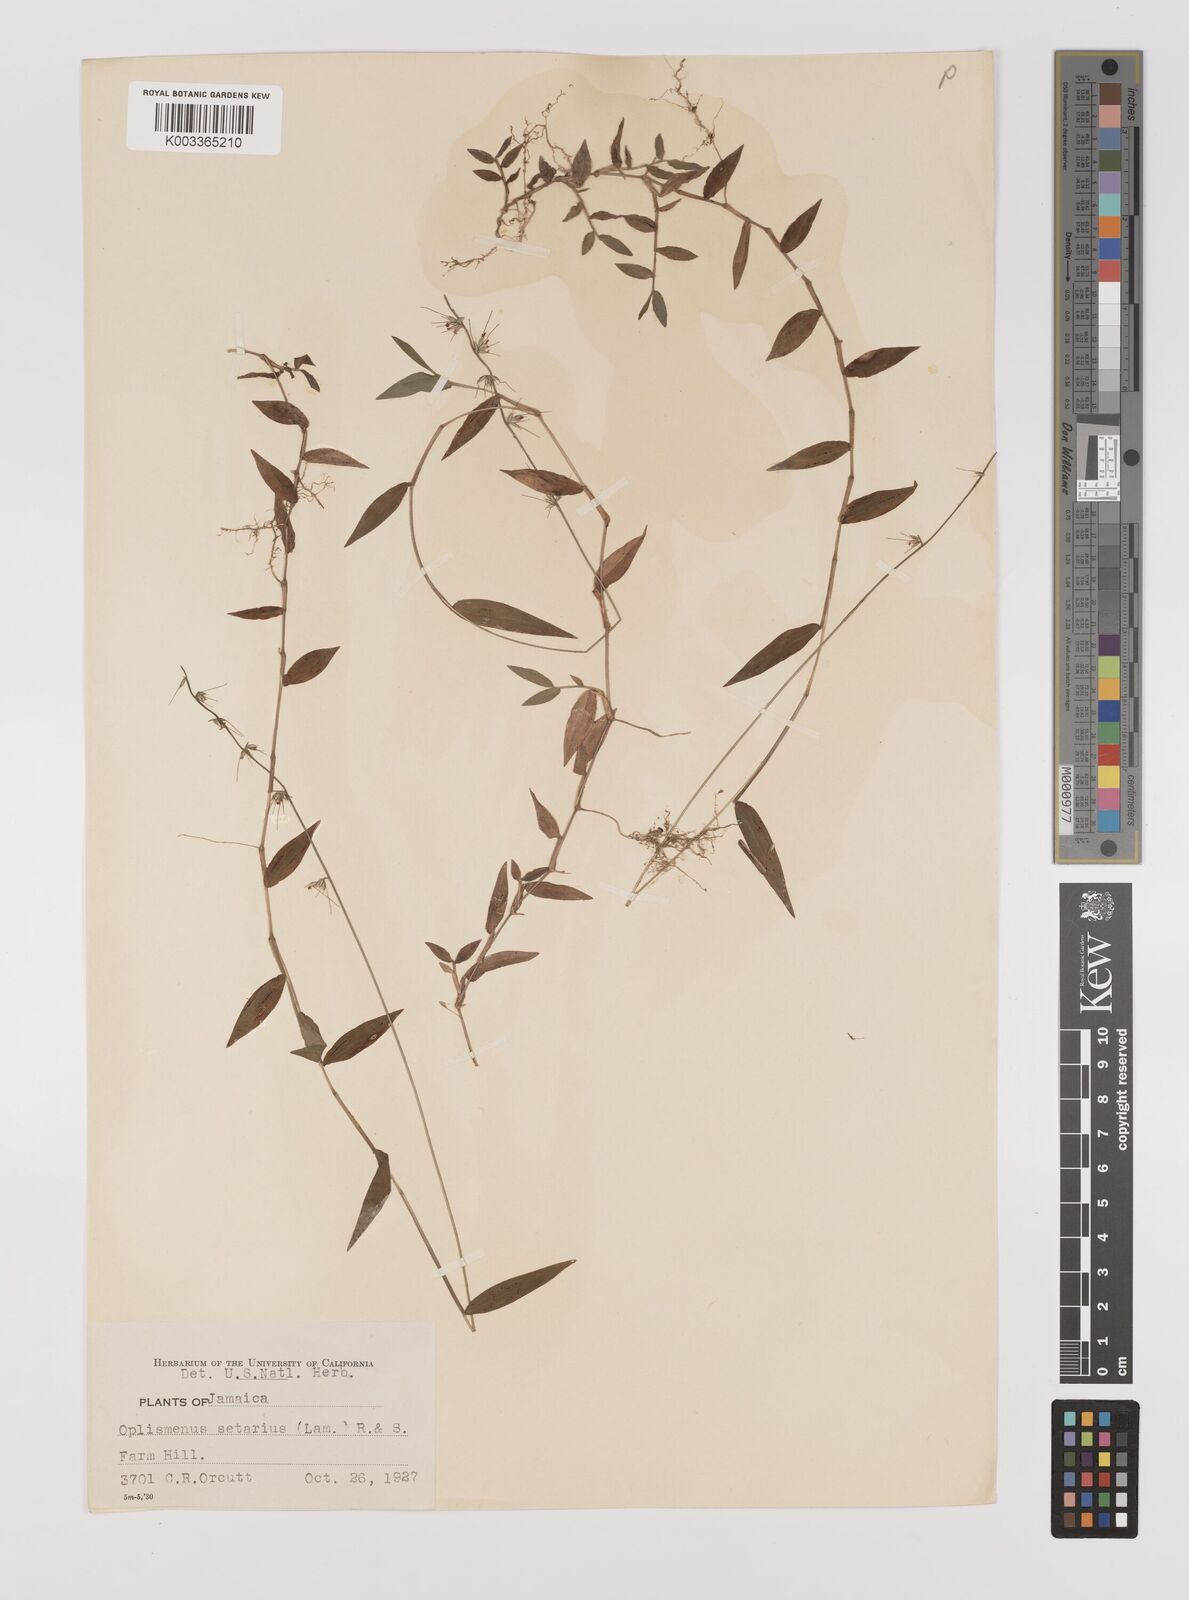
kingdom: Plantae
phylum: Tracheophyta
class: Liliopsida
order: Poales
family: Poaceae
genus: Oplismenus
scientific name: Oplismenus hirtellus
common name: Basketgrass
